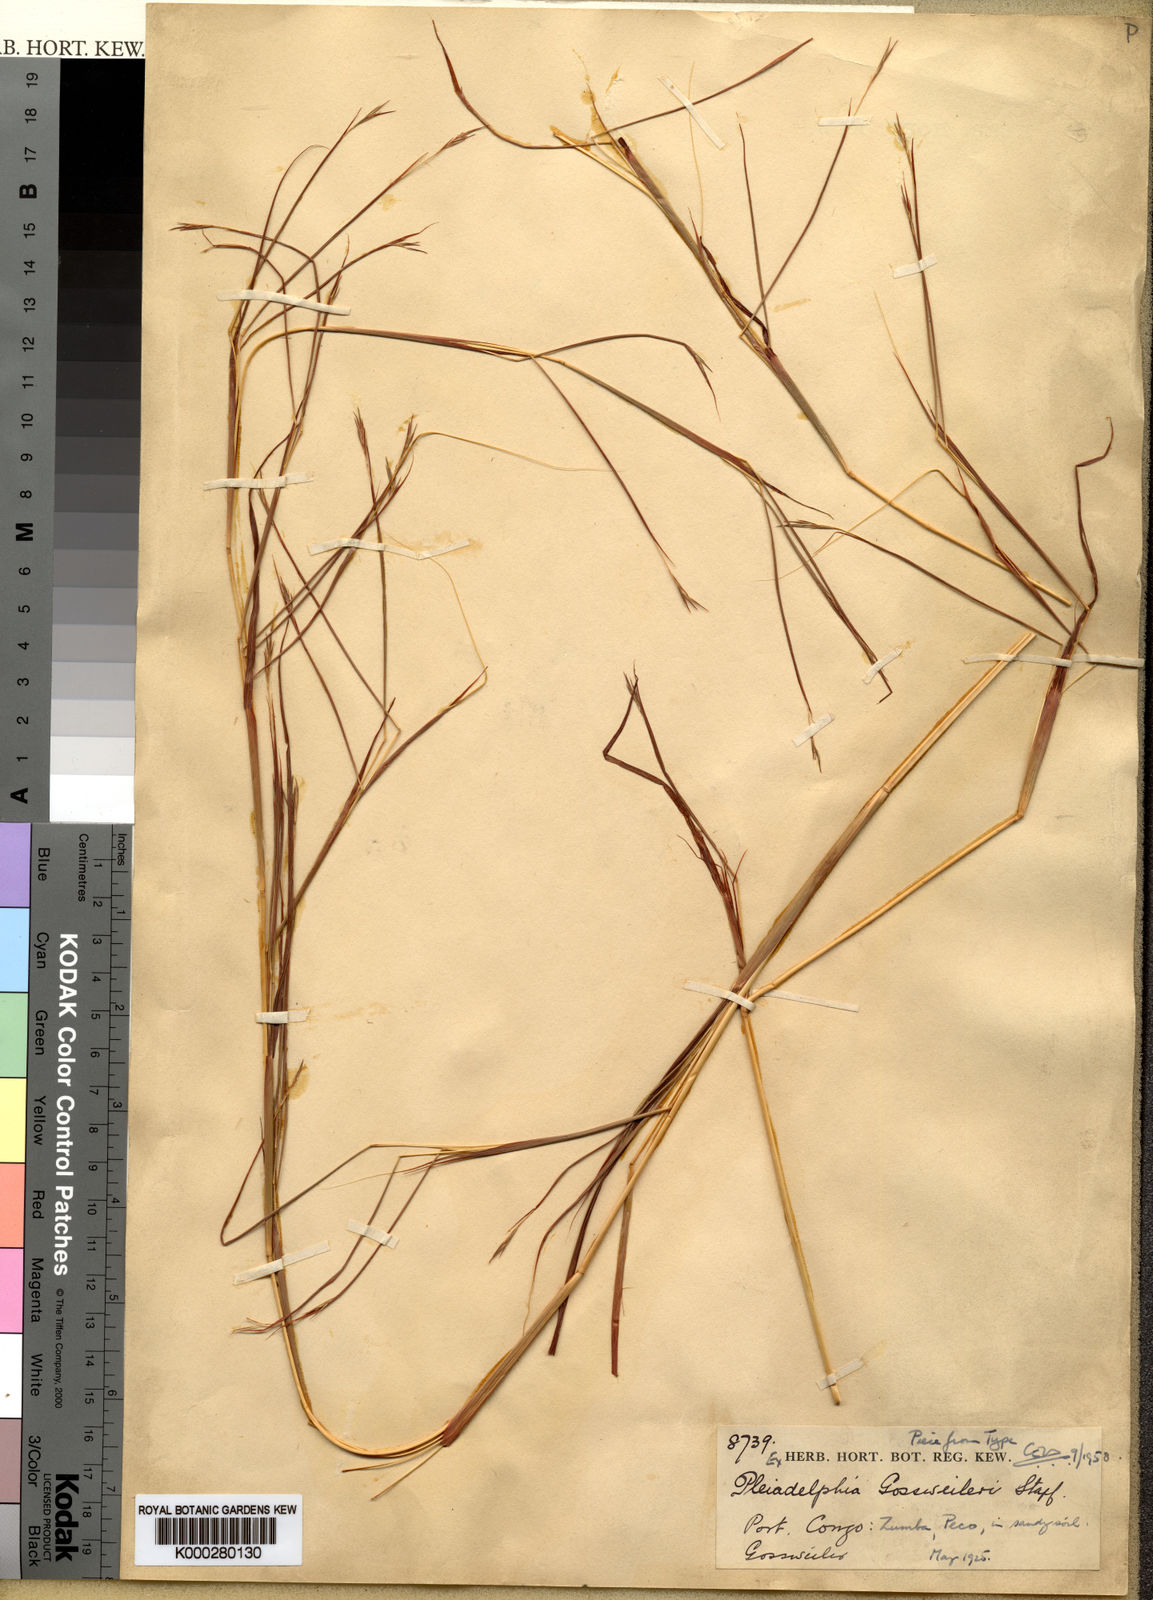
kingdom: Plantae
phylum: Tracheophyta
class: Liliopsida
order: Poales
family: Poaceae
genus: Elymandra
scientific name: Elymandra gossweileri
